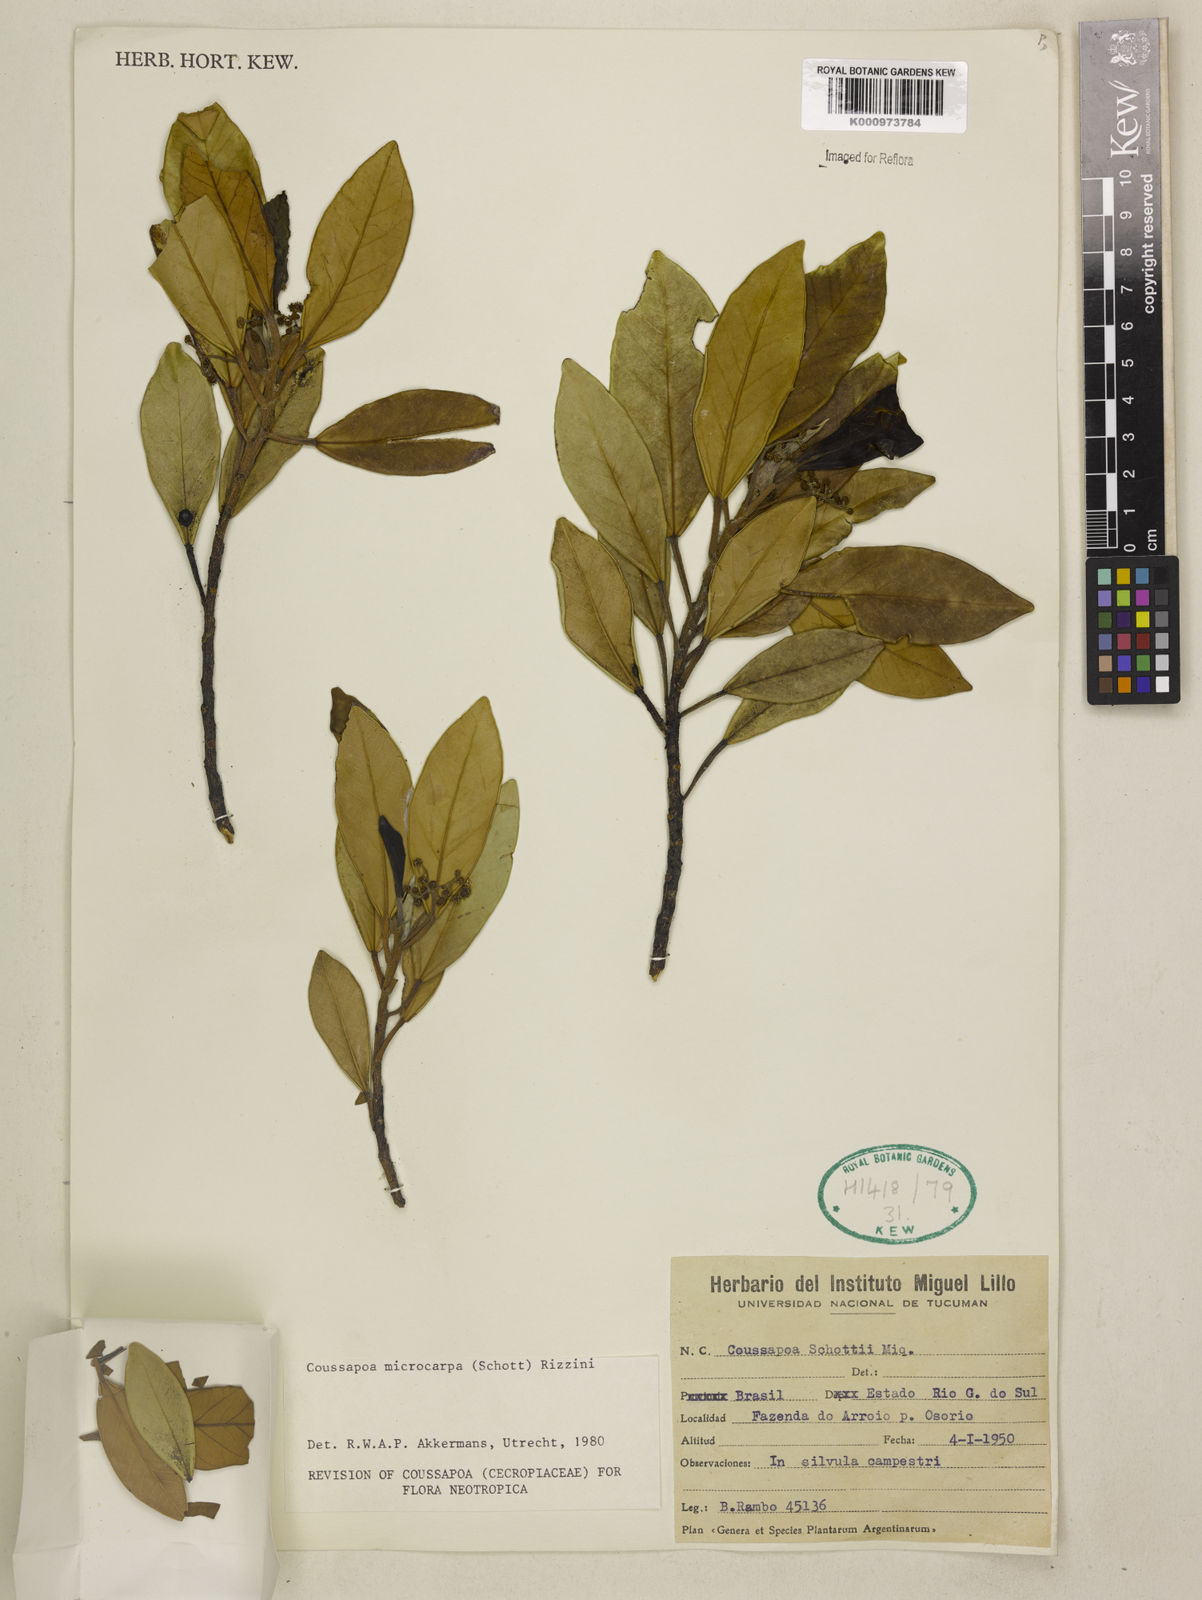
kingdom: Plantae
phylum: Tracheophyta
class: Magnoliopsida
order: Rosales
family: Urticaceae
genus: Coussapoa
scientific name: Coussapoa microcarpa
